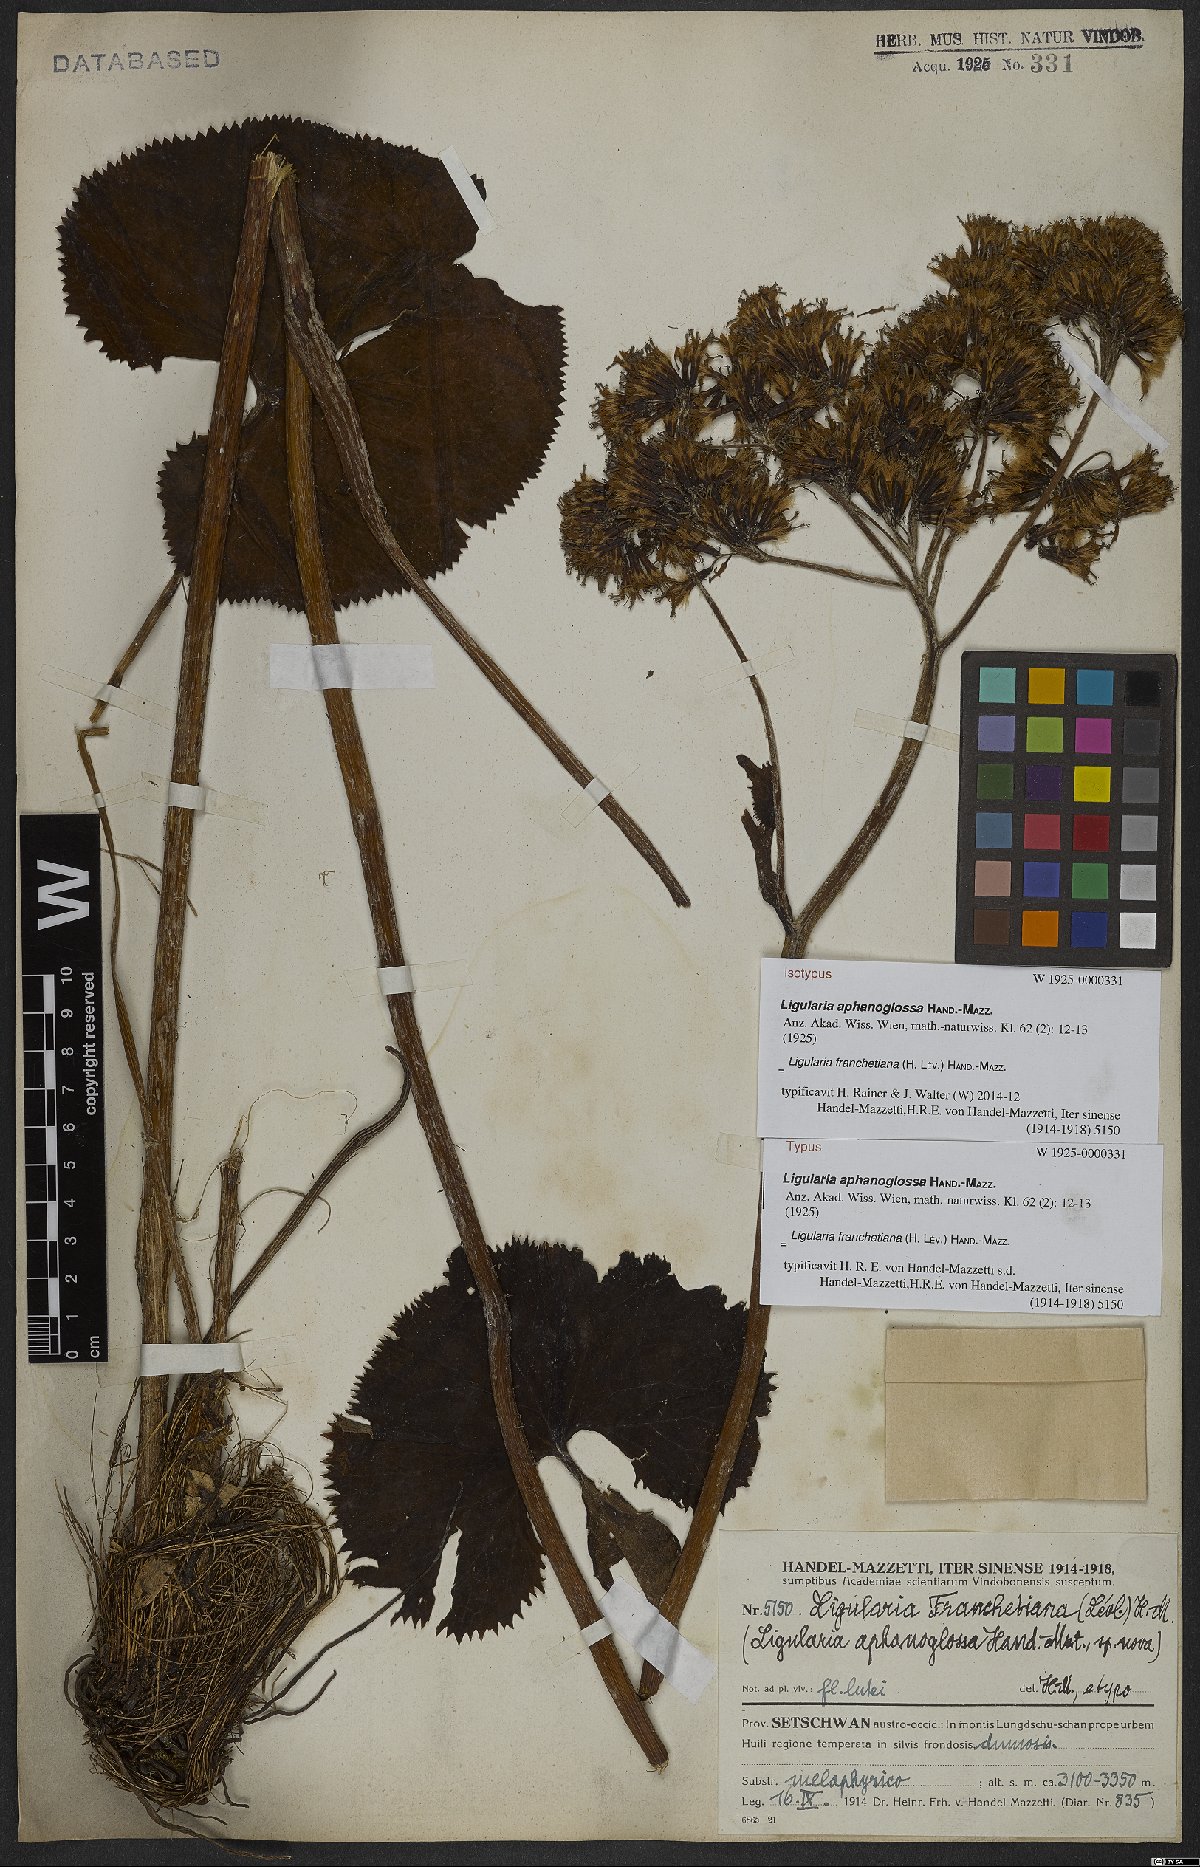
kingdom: Plantae
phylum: Tracheophyta
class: Magnoliopsida
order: Asterales
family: Asteraceae
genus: Ligularia
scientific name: Ligularia franchetiana
